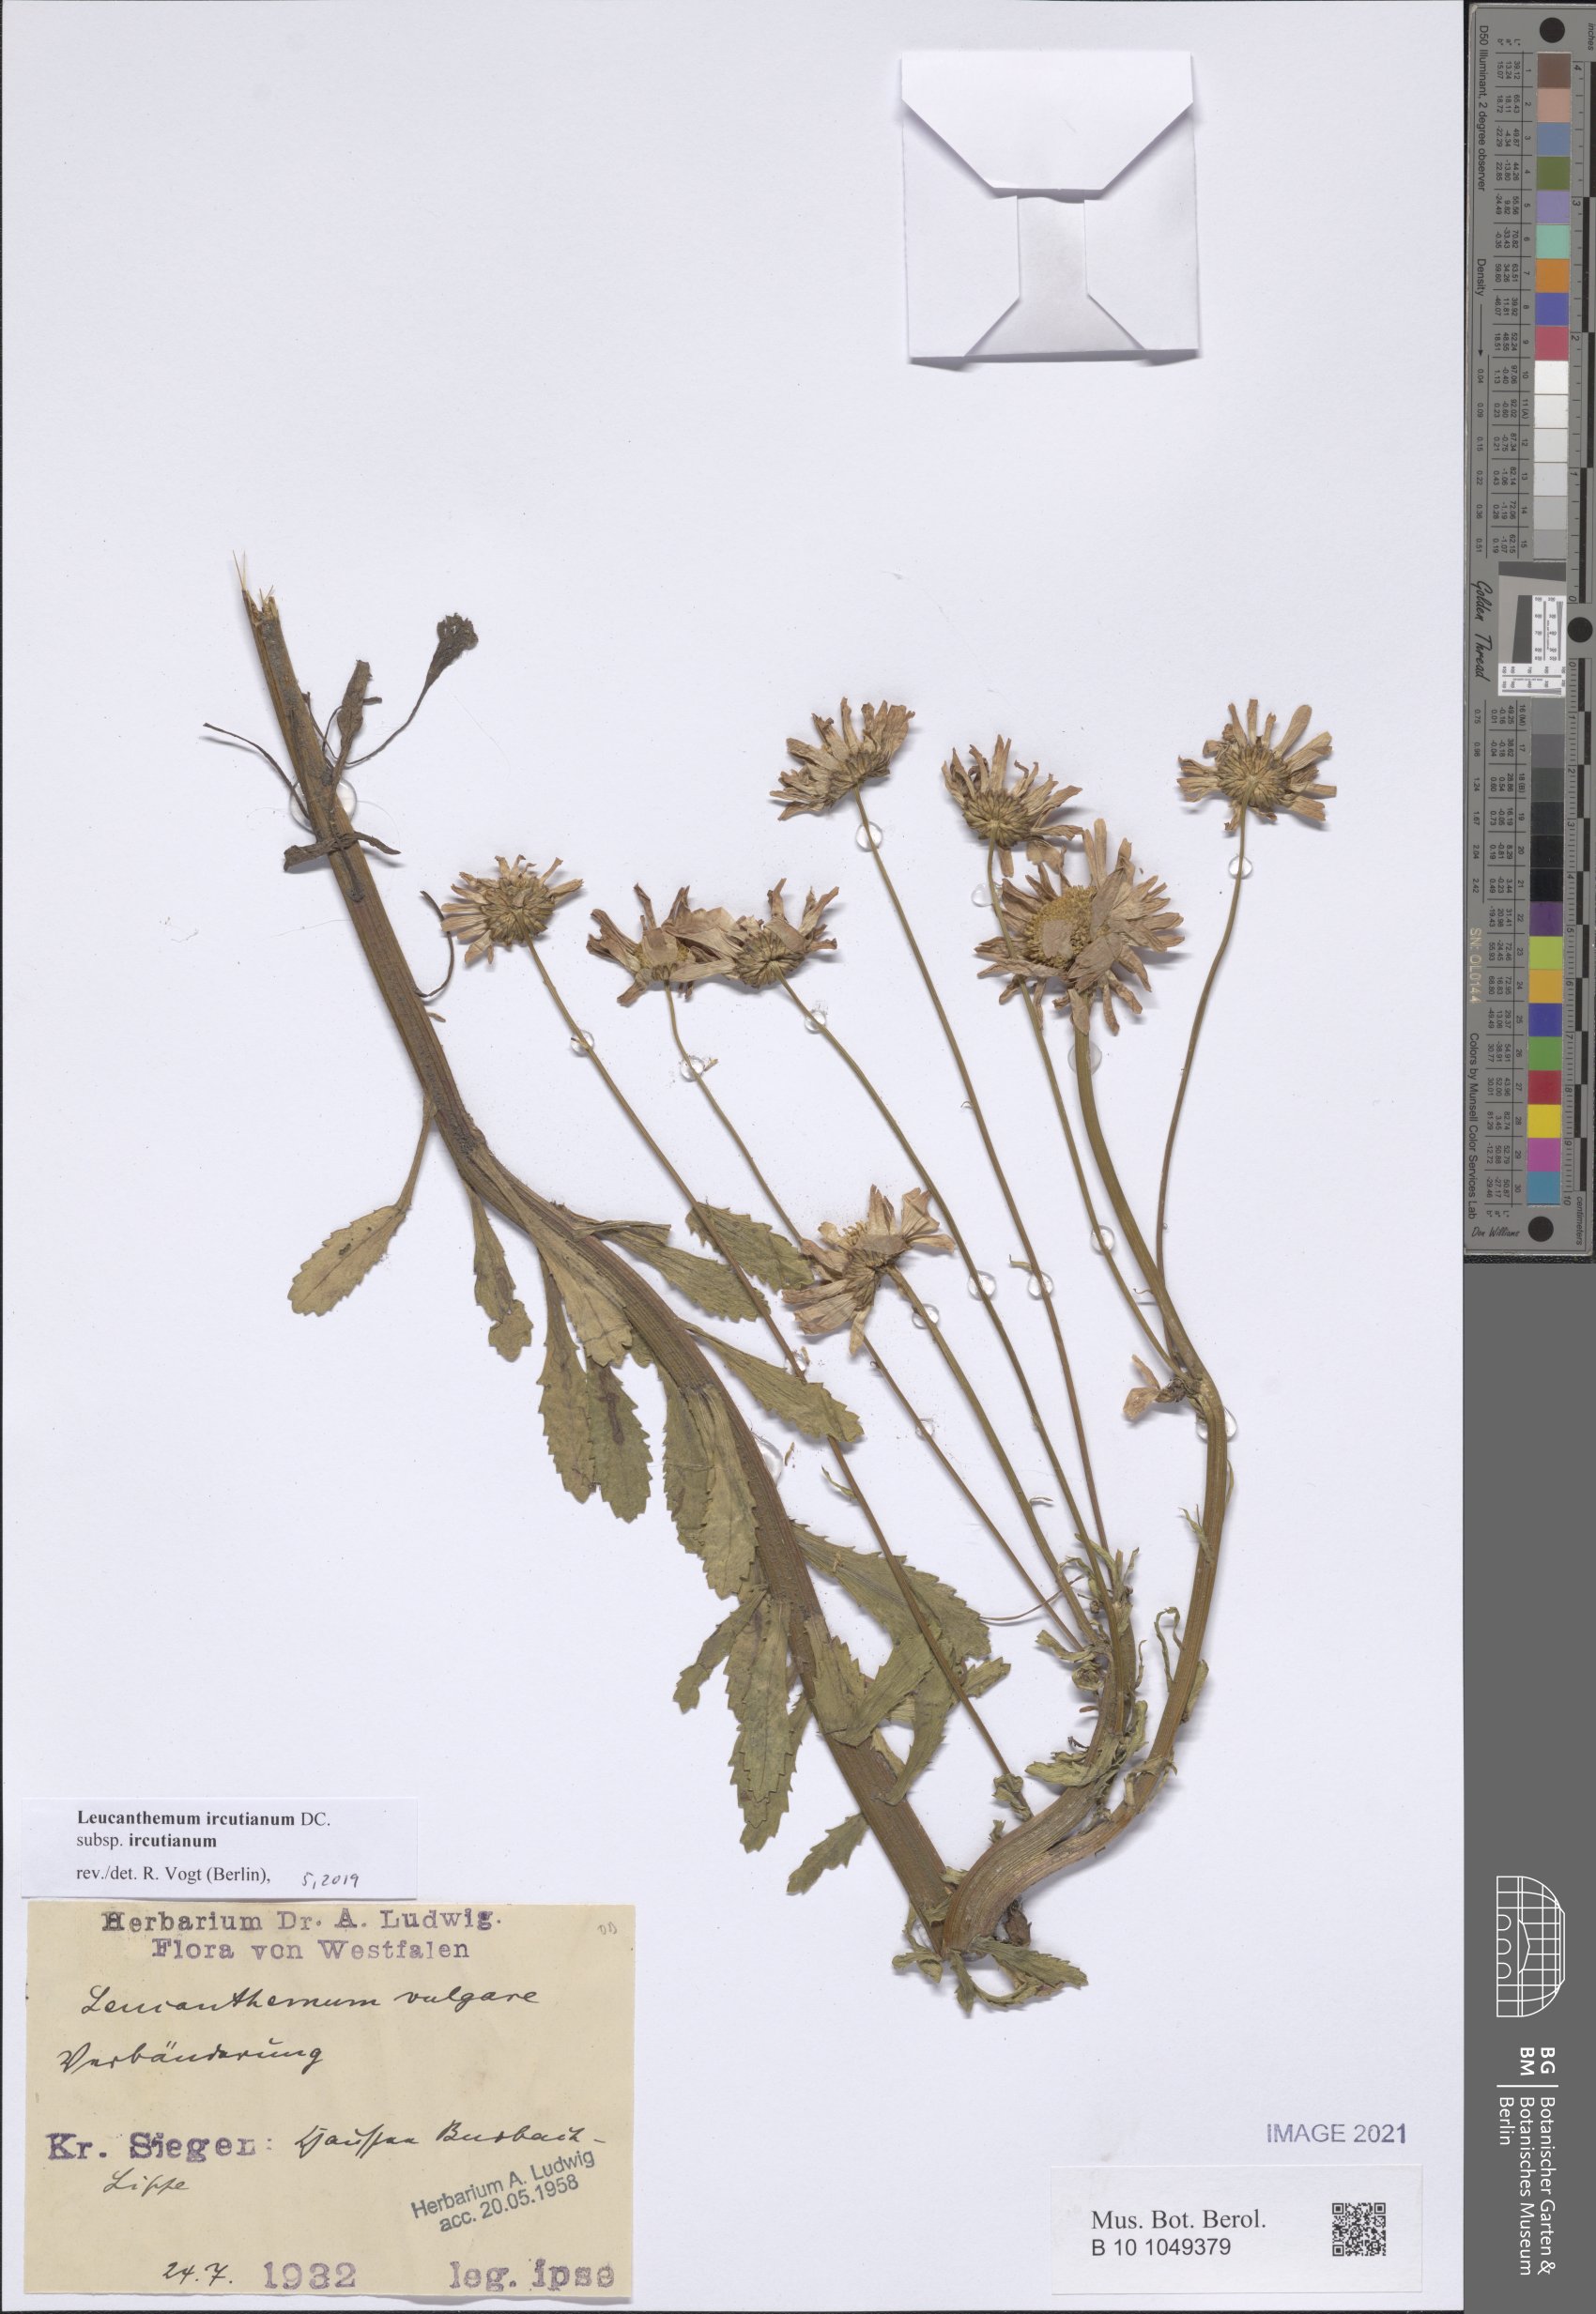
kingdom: Plantae
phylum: Tracheophyta
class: Magnoliopsida
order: Asterales
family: Asteraceae
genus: Leucanthemum
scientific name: Leucanthemum ircutianum
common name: Daisy
